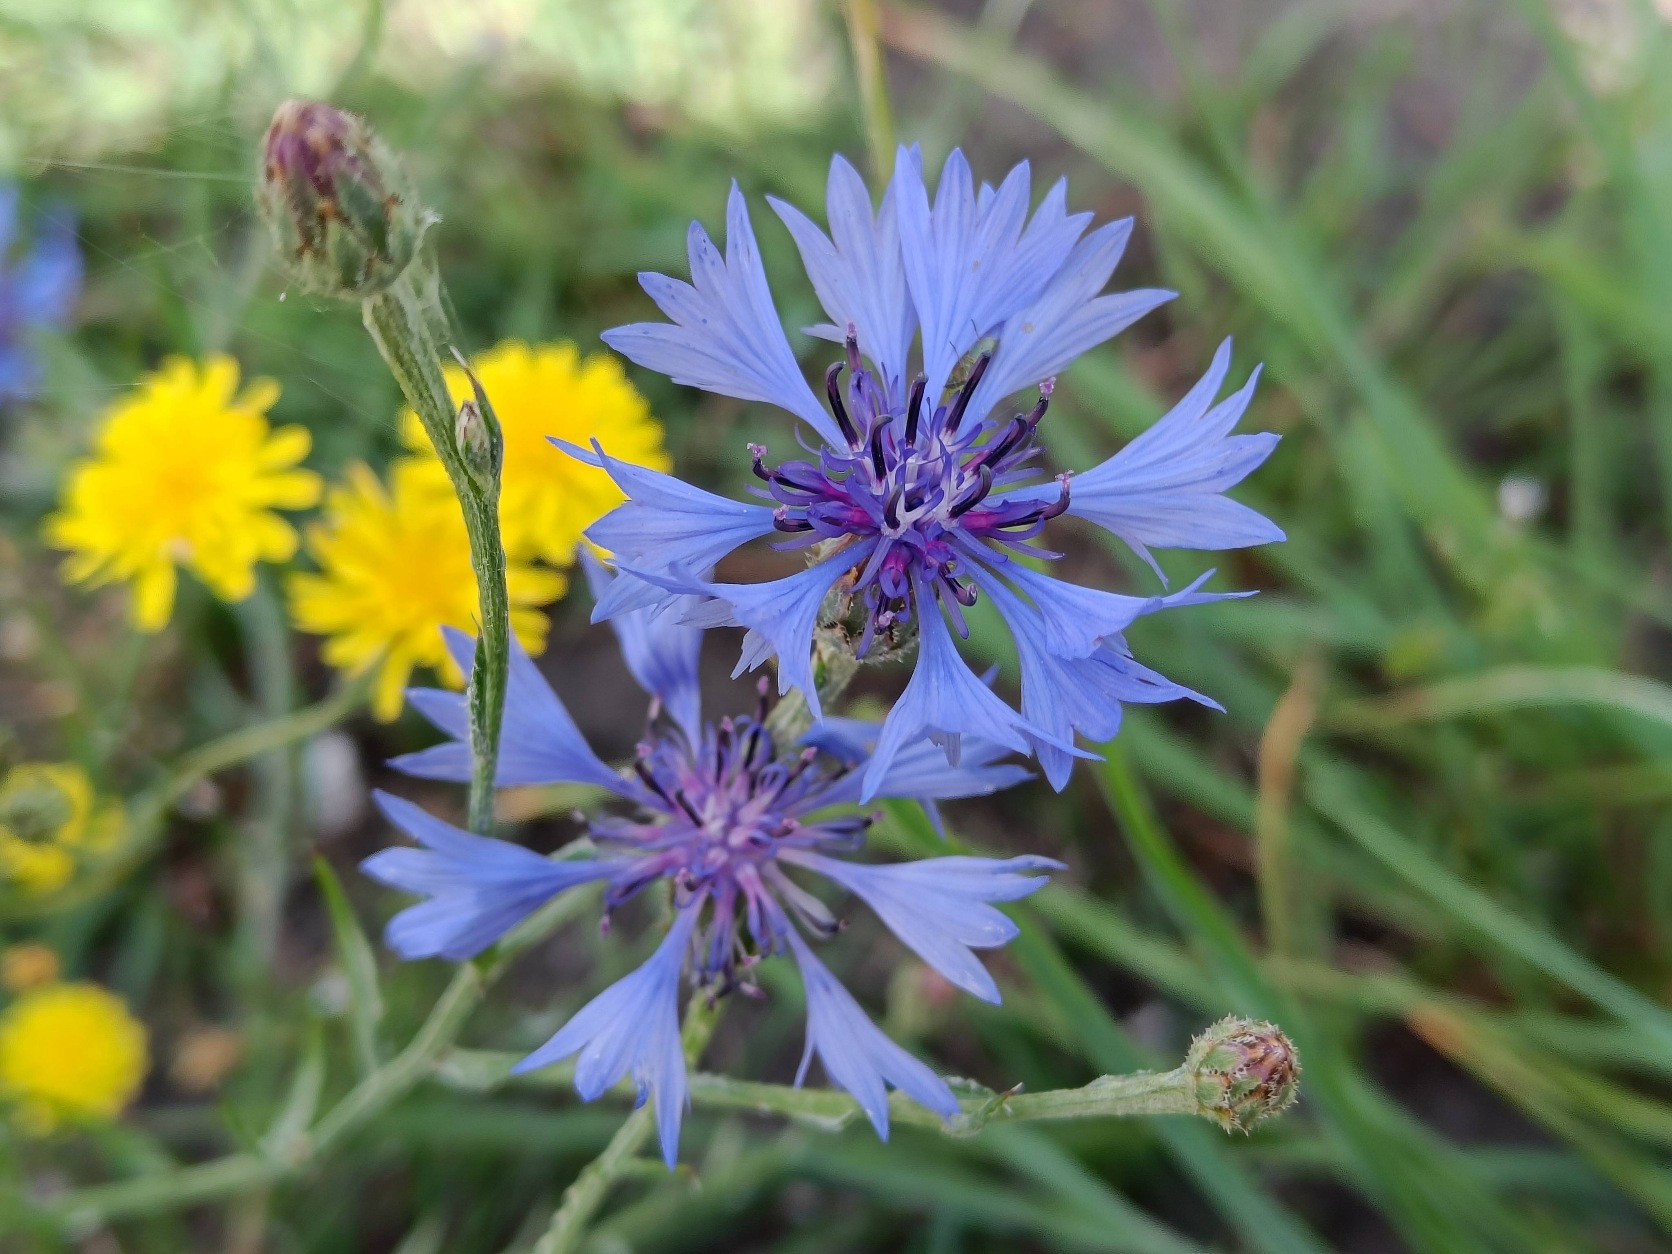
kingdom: Plantae
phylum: Tracheophyta
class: Magnoliopsida
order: Asterales
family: Asteraceae
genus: Centaurea
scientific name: Centaurea cyanus
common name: Kornblomst
